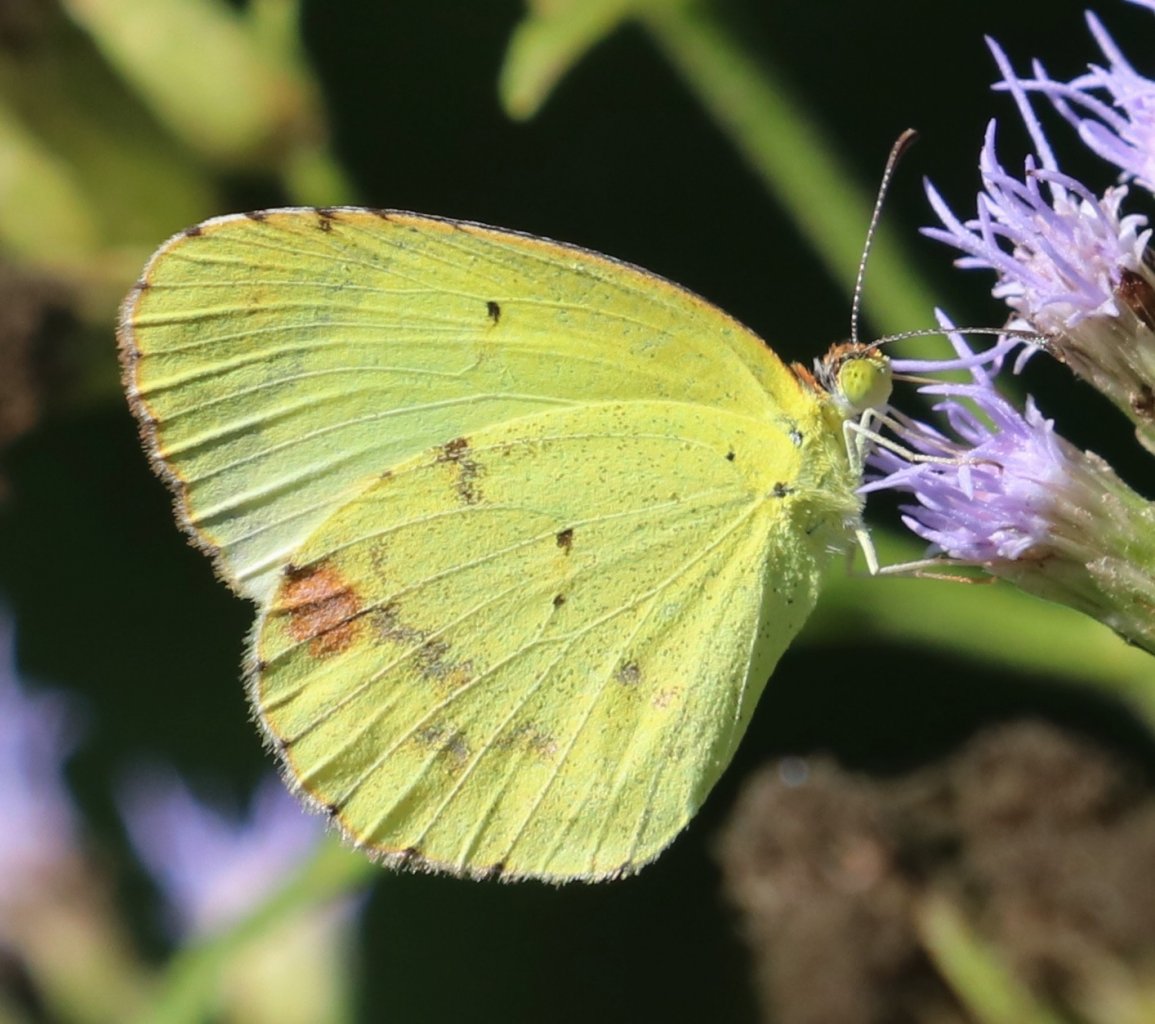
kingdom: Animalia
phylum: Arthropoda
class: Insecta
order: Lepidoptera
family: Pieridae
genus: Pyrisitia
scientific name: Pyrisitia lisa
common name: Little Yellow
